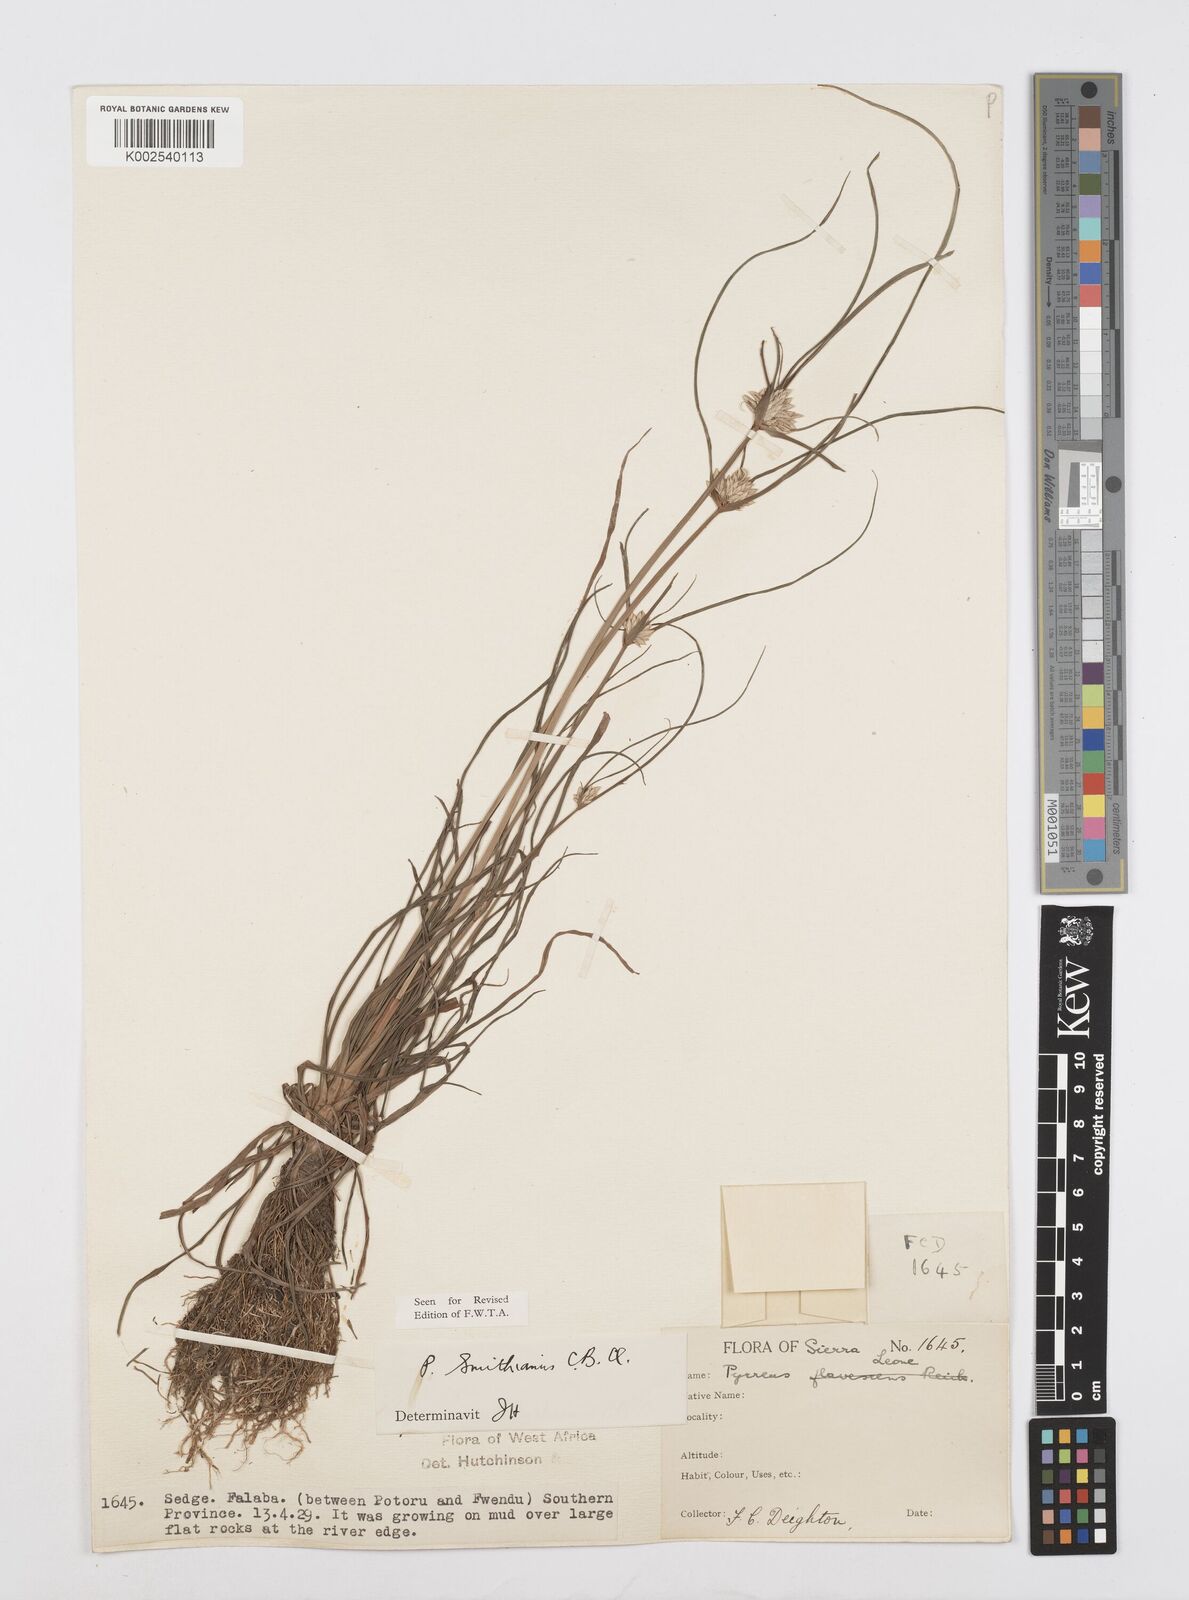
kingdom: Plantae
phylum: Tracheophyta
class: Liliopsida
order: Poales
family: Cyperaceae
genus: Cyperus
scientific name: Cyperus smithianus
